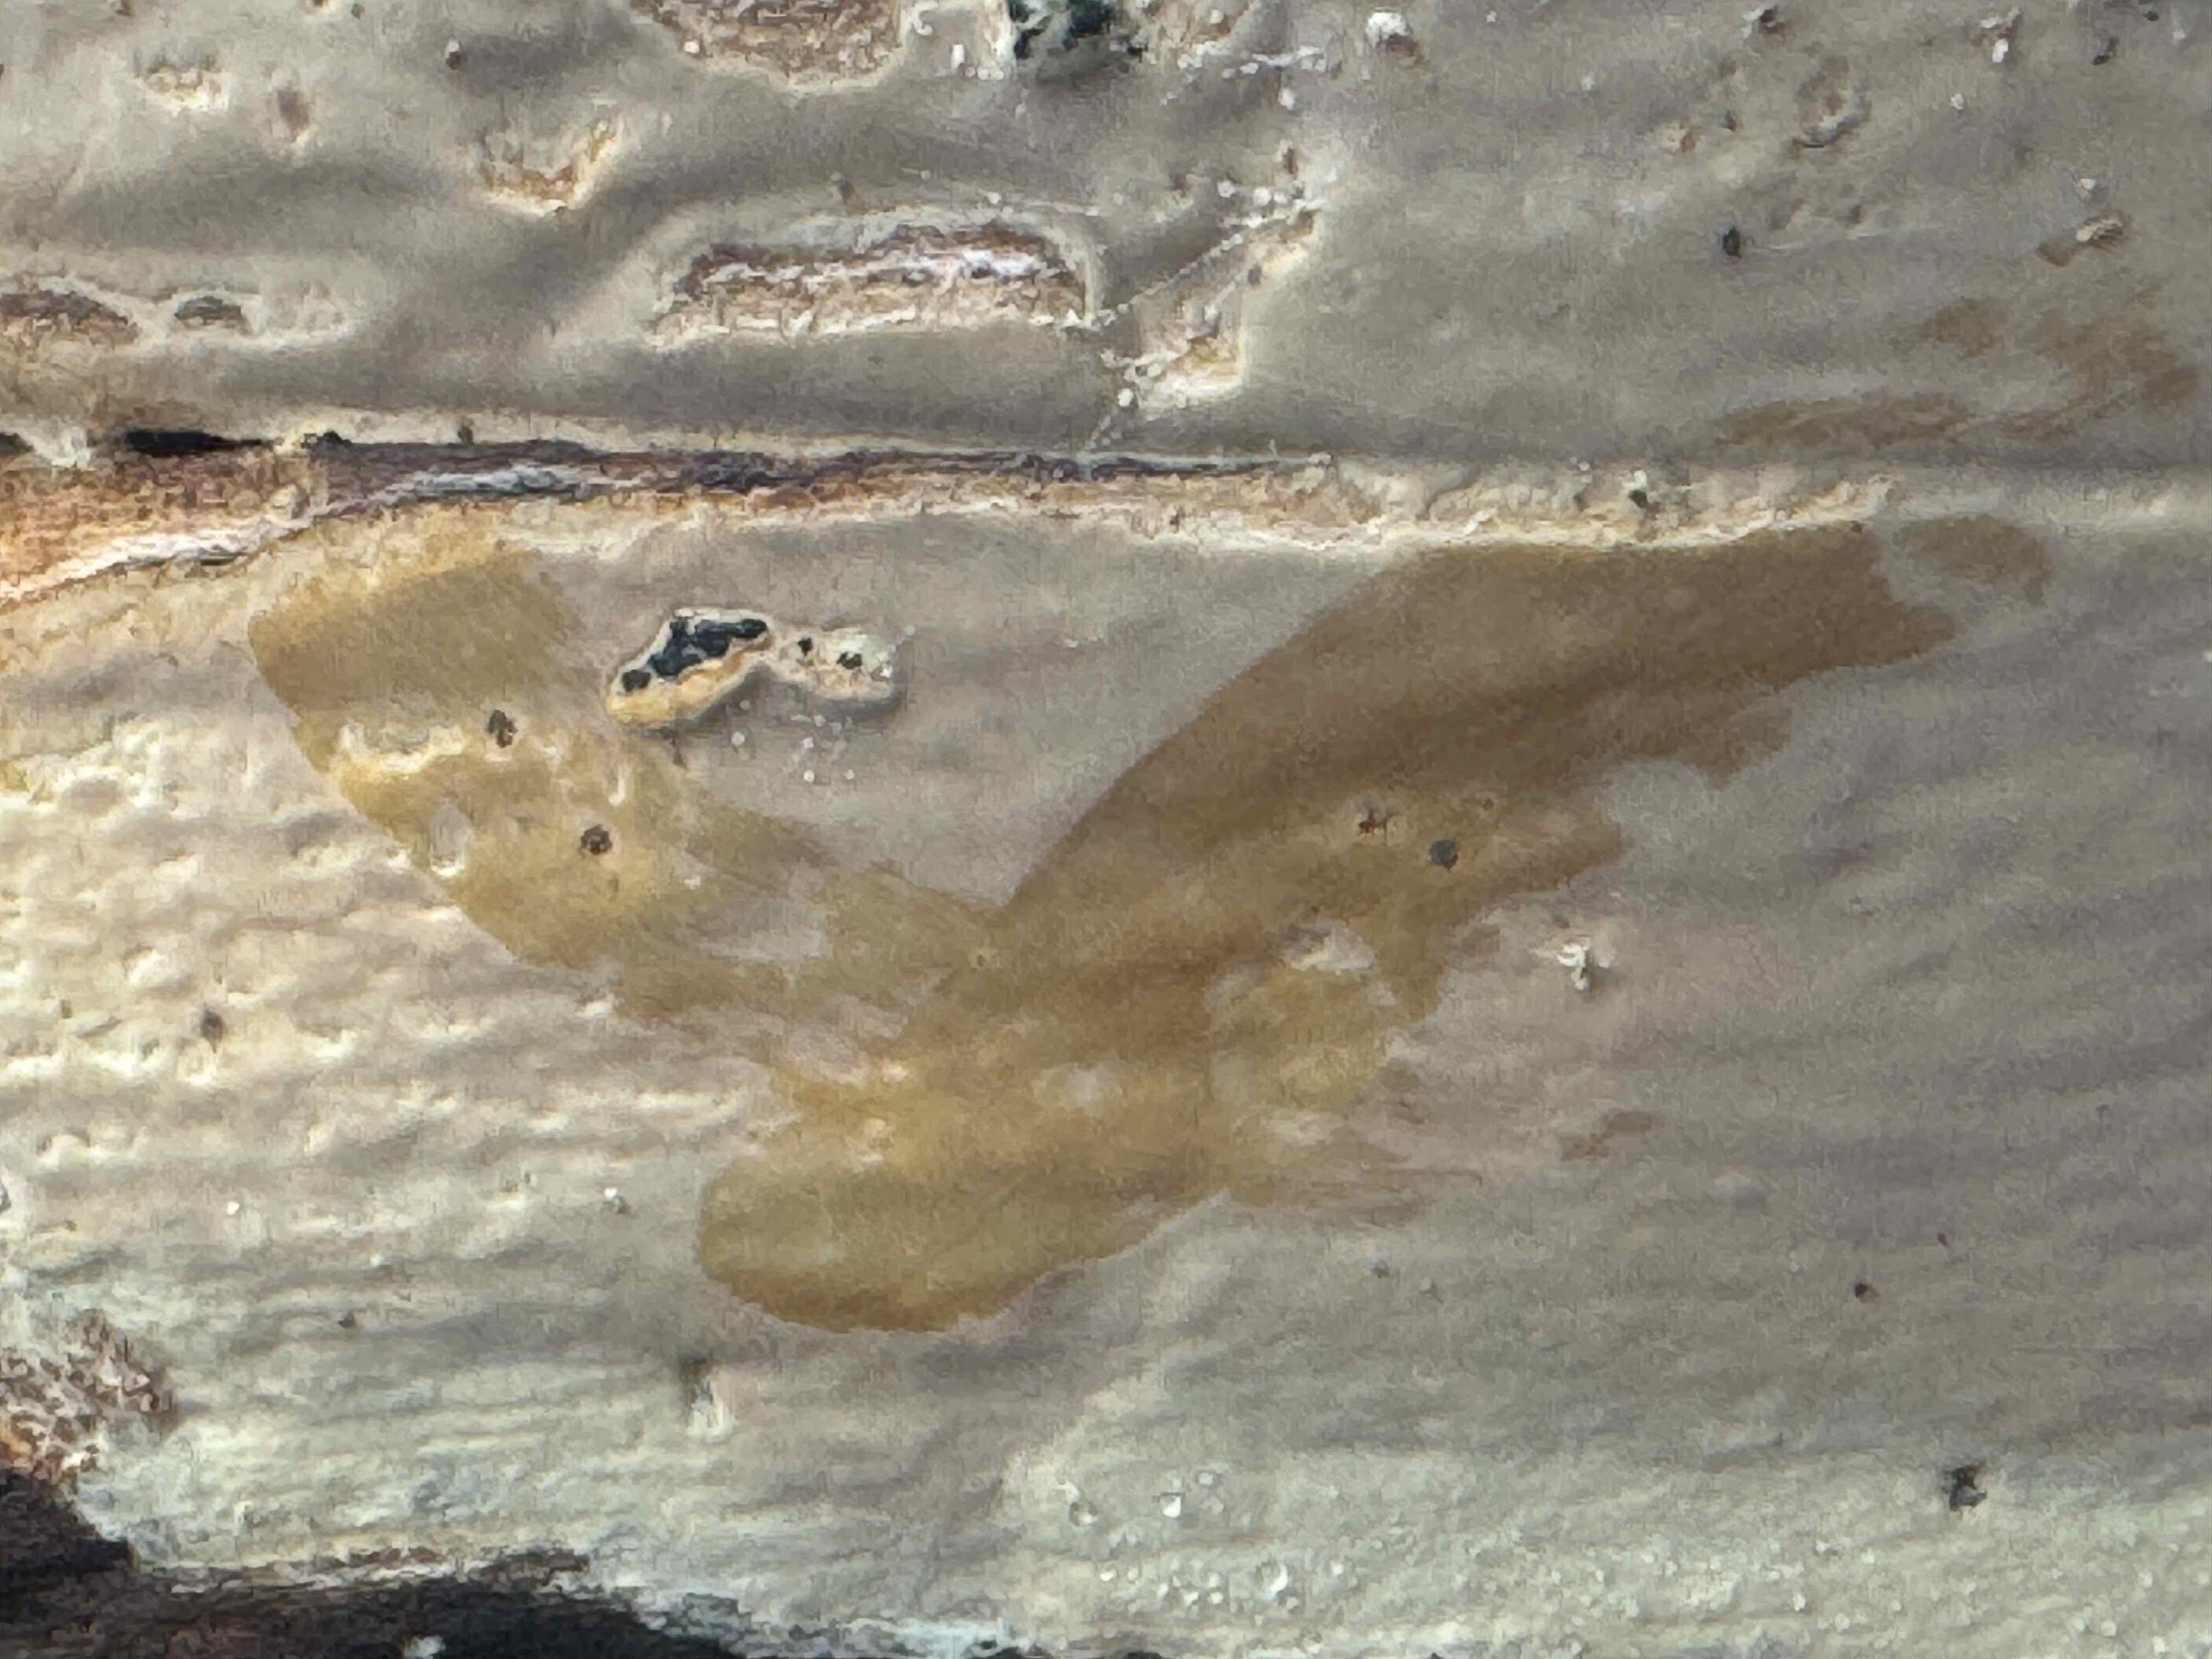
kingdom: Fungi
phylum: Basidiomycota
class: Agaricomycetes
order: Russulales
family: Peniophoraceae
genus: Scytinostroma
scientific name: Scytinostroma hemidichophyticum
